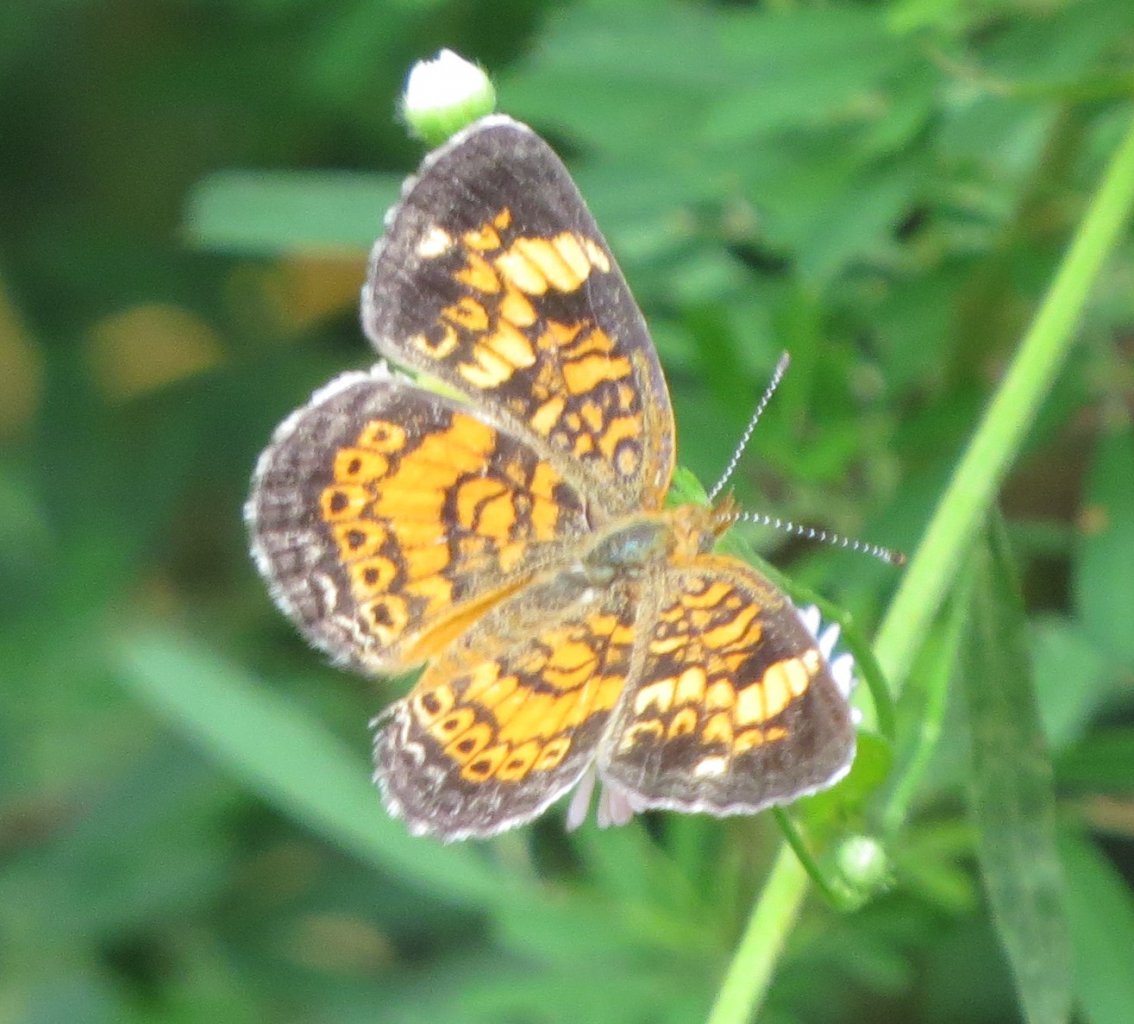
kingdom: Animalia
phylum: Arthropoda
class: Insecta
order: Lepidoptera
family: Nymphalidae
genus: Phyciodes
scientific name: Phyciodes tharos
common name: Pearl Crescent
